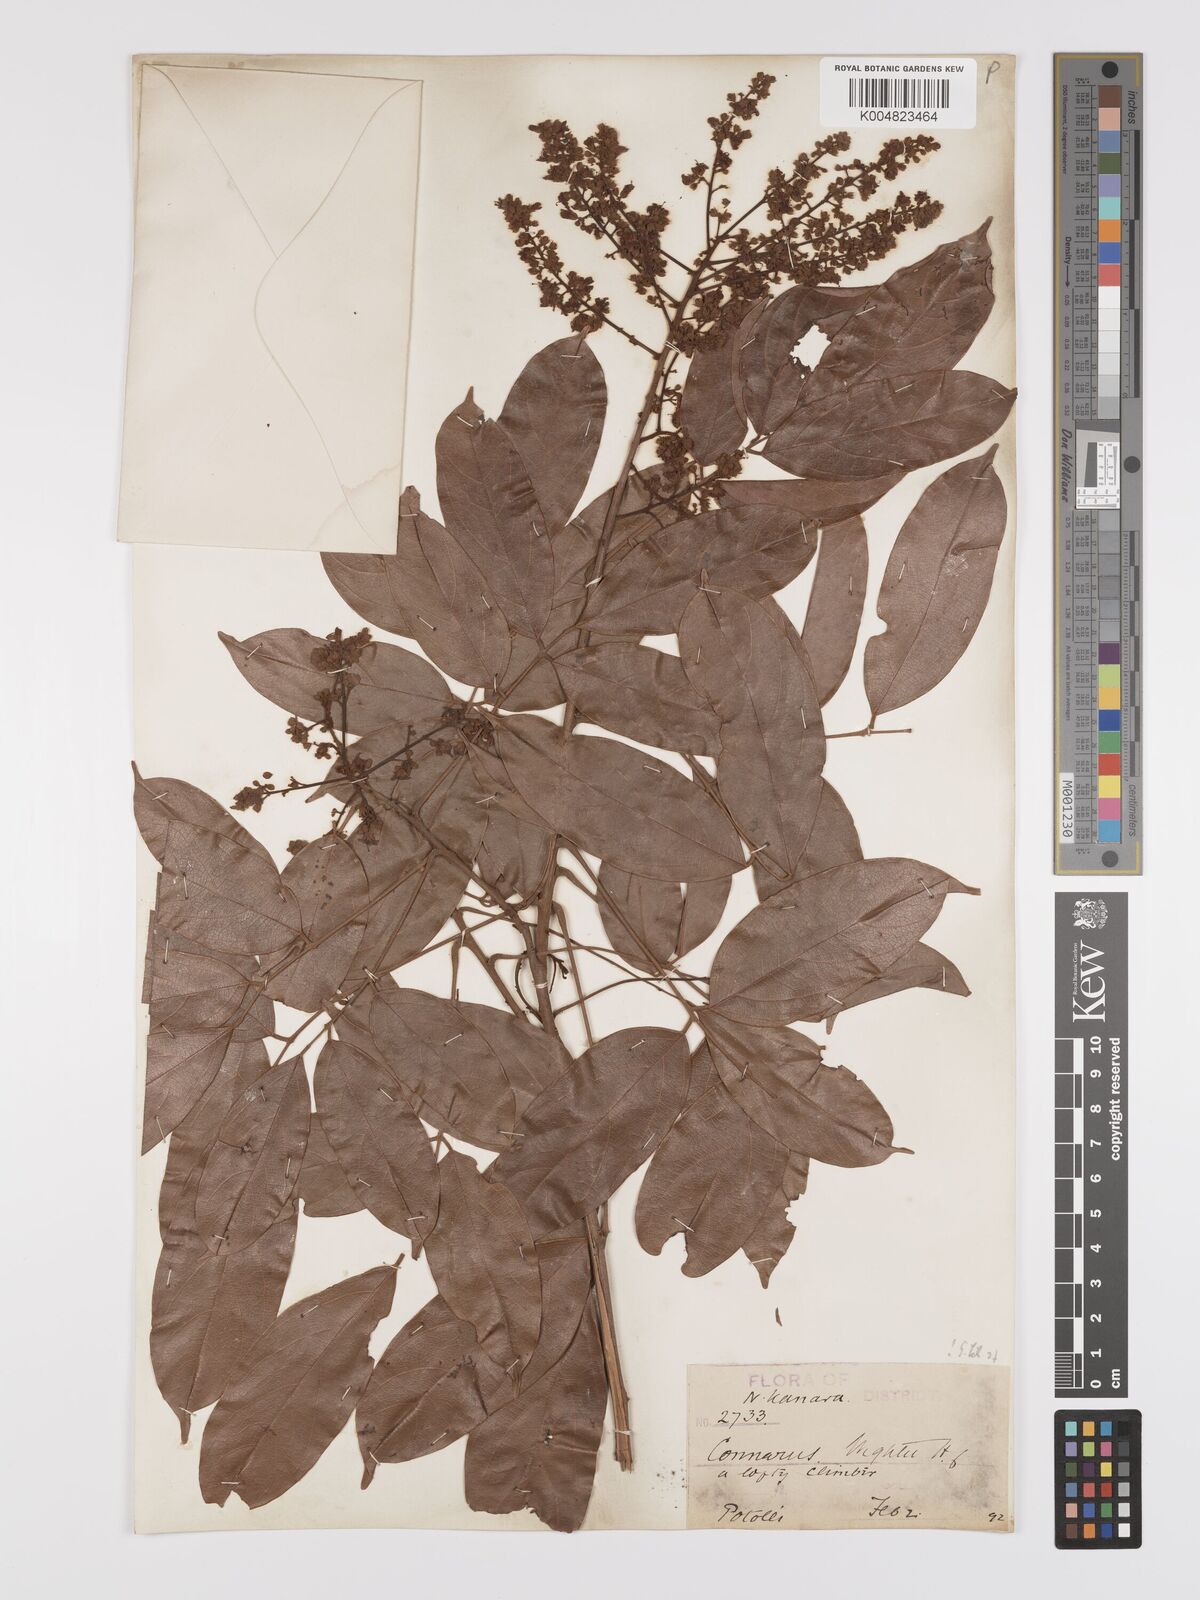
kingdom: Plantae
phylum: Tracheophyta
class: Magnoliopsida
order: Oxalidales
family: Connaraceae
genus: Connarus
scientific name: Connarus wightii
